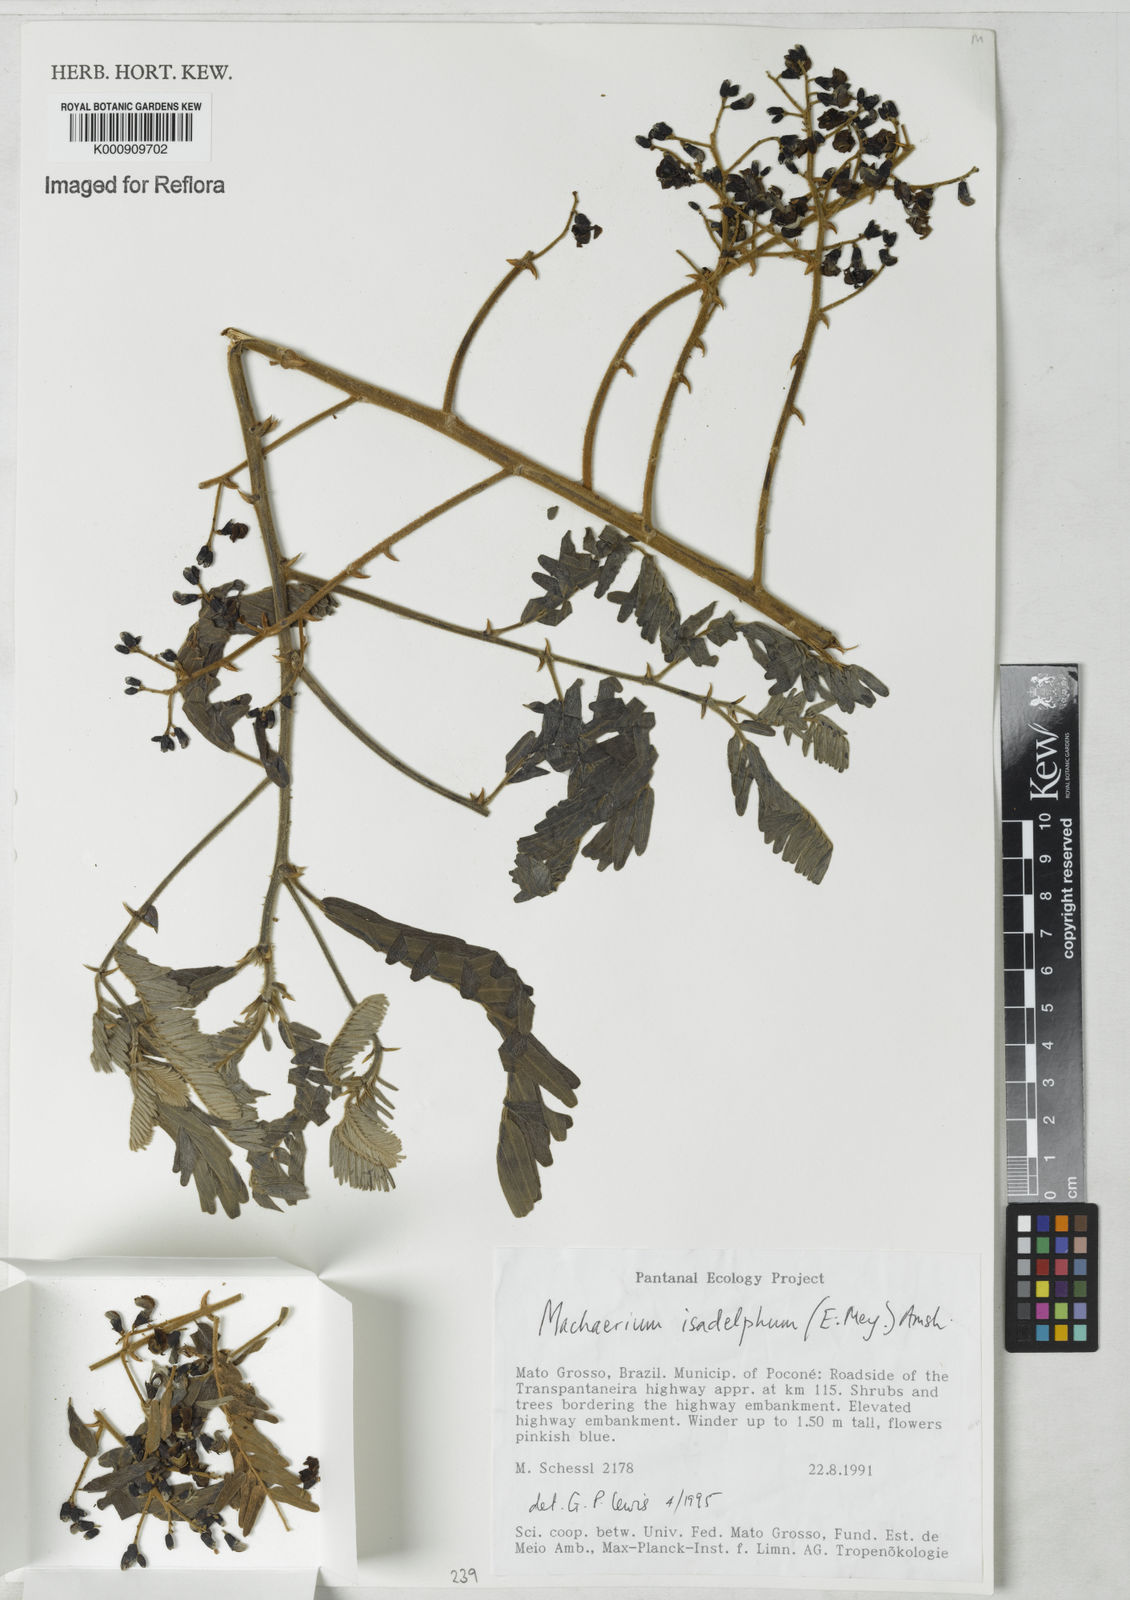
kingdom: Plantae
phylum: Tracheophyta
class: Magnoliopsida
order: Fabales
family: Fabaceae
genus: Machaerium
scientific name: Machaerium isadelphum
